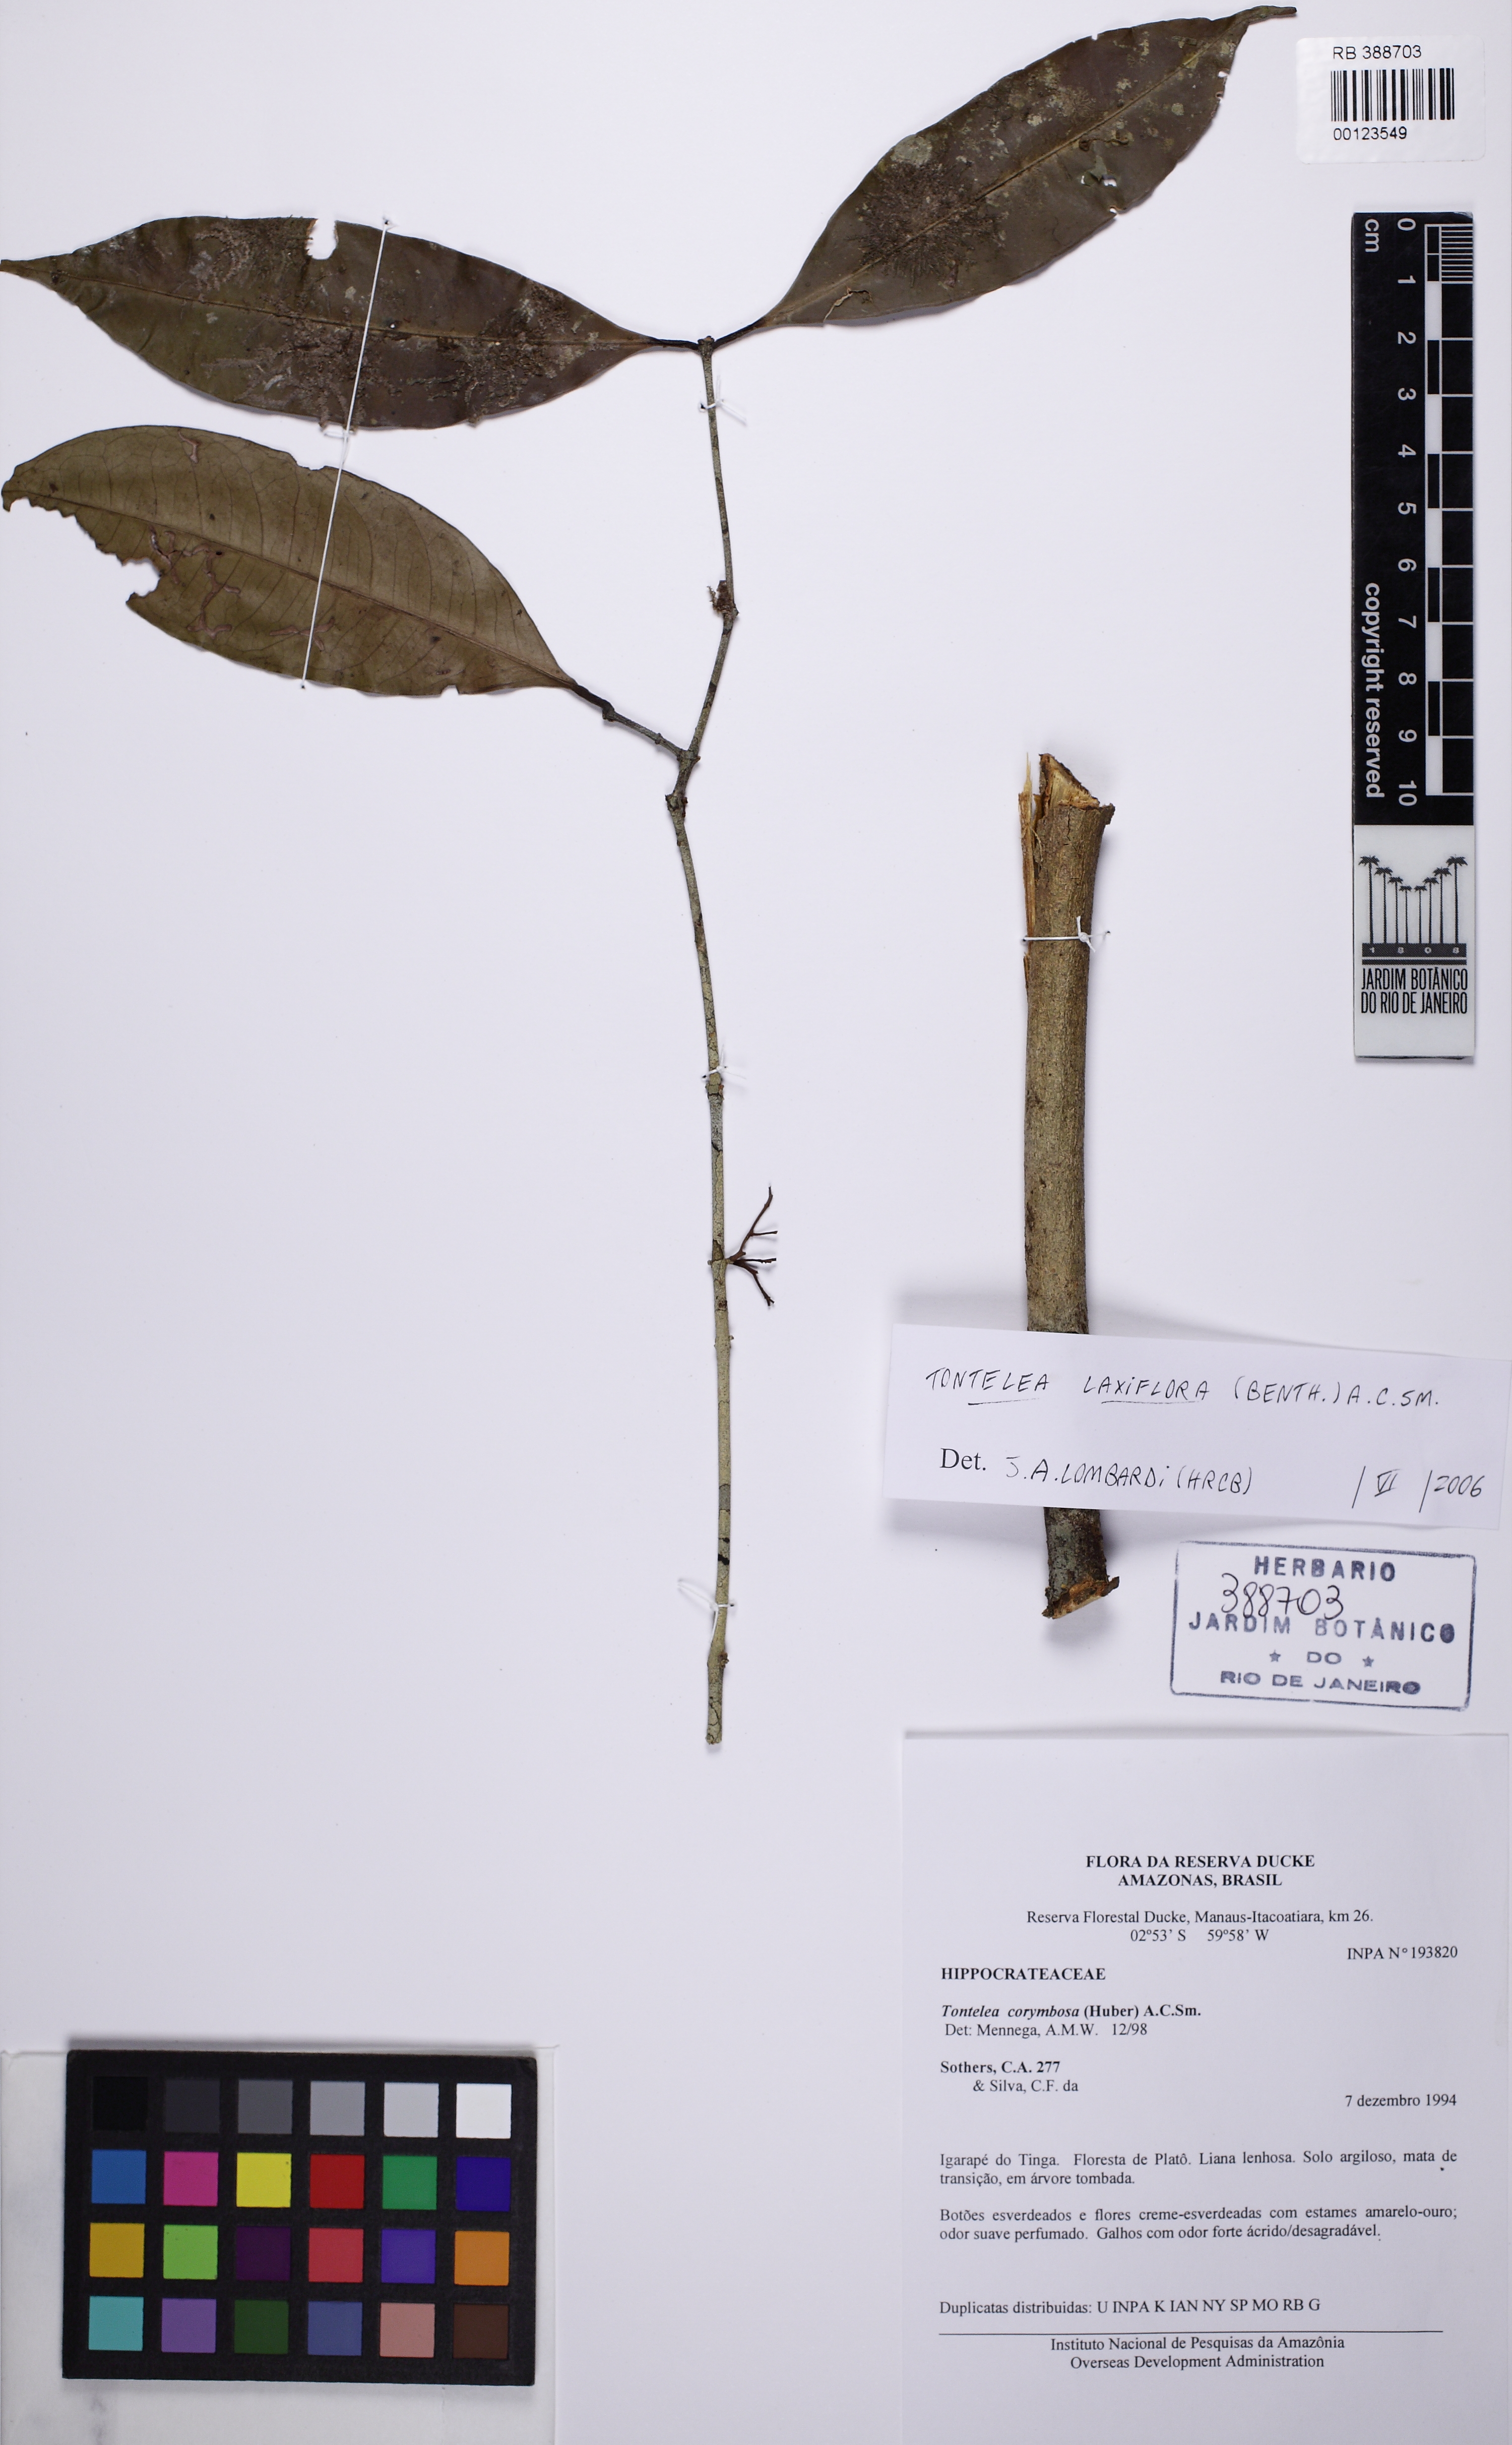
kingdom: Plantae
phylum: Tracheophyta
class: Magnoliopsida
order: Celastrales
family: Celastraceae
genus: Tontelea
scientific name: Tontelea laxiflora
